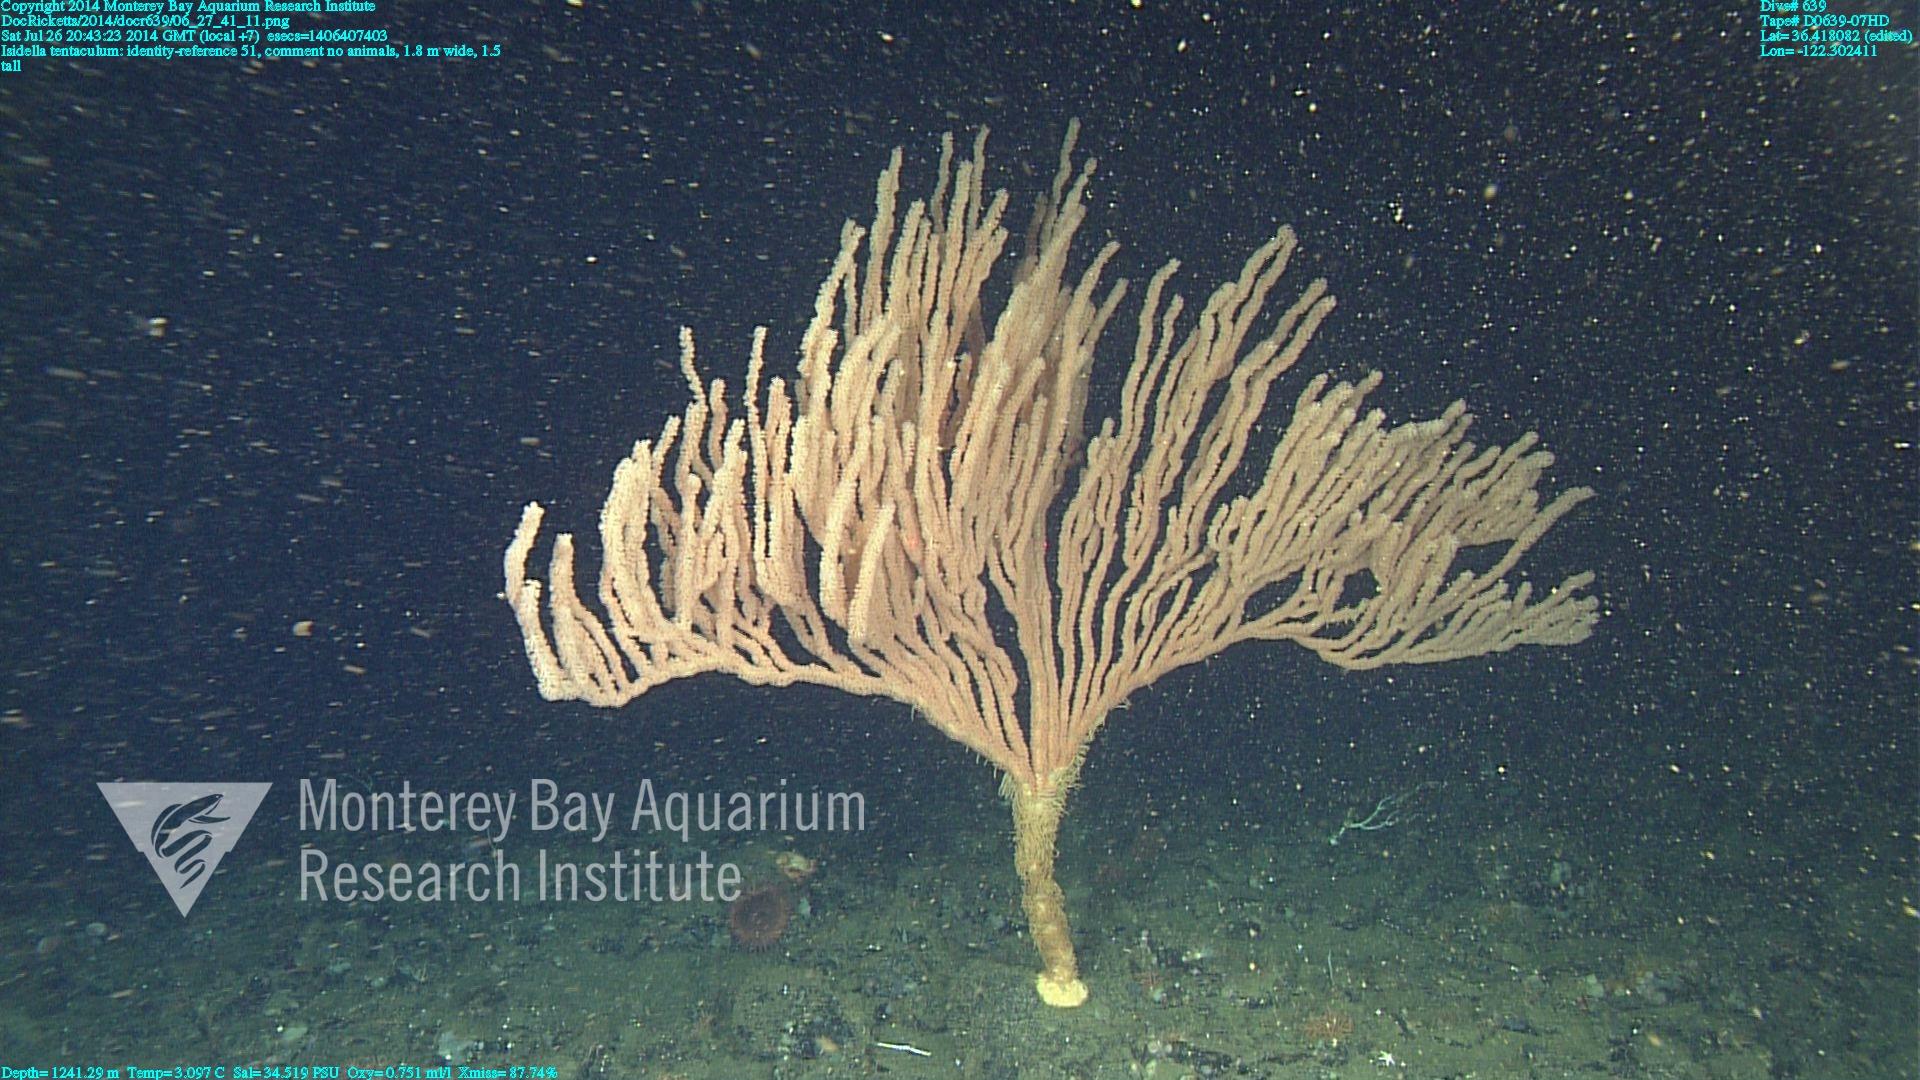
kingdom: Animalia
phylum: Cnidaria
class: Anthozoa
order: Scleralcyonacea
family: Keratoisididae
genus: Isidella
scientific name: Isidella tentaculum
